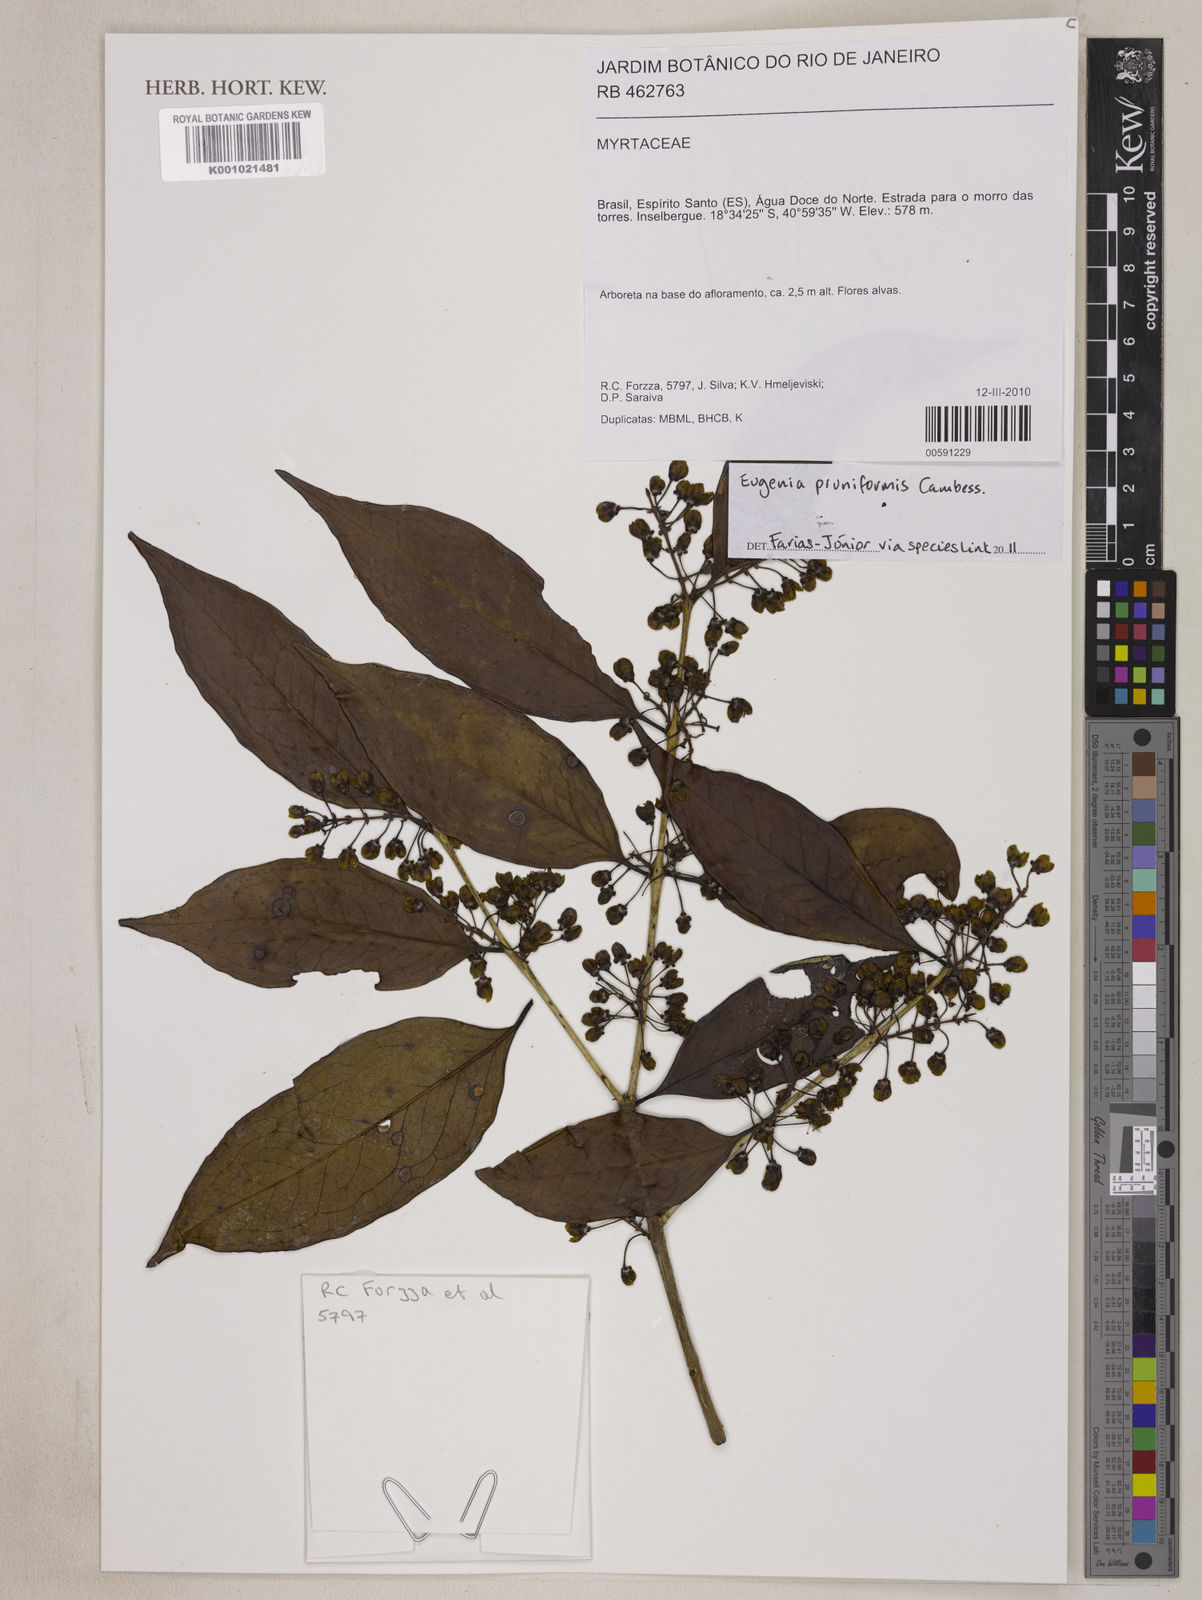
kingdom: Plantae
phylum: Tracheophyta
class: Magnoliopsida
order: Myrtales
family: Myrtaceae
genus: Eugenia
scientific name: Eugenia pruniformis
